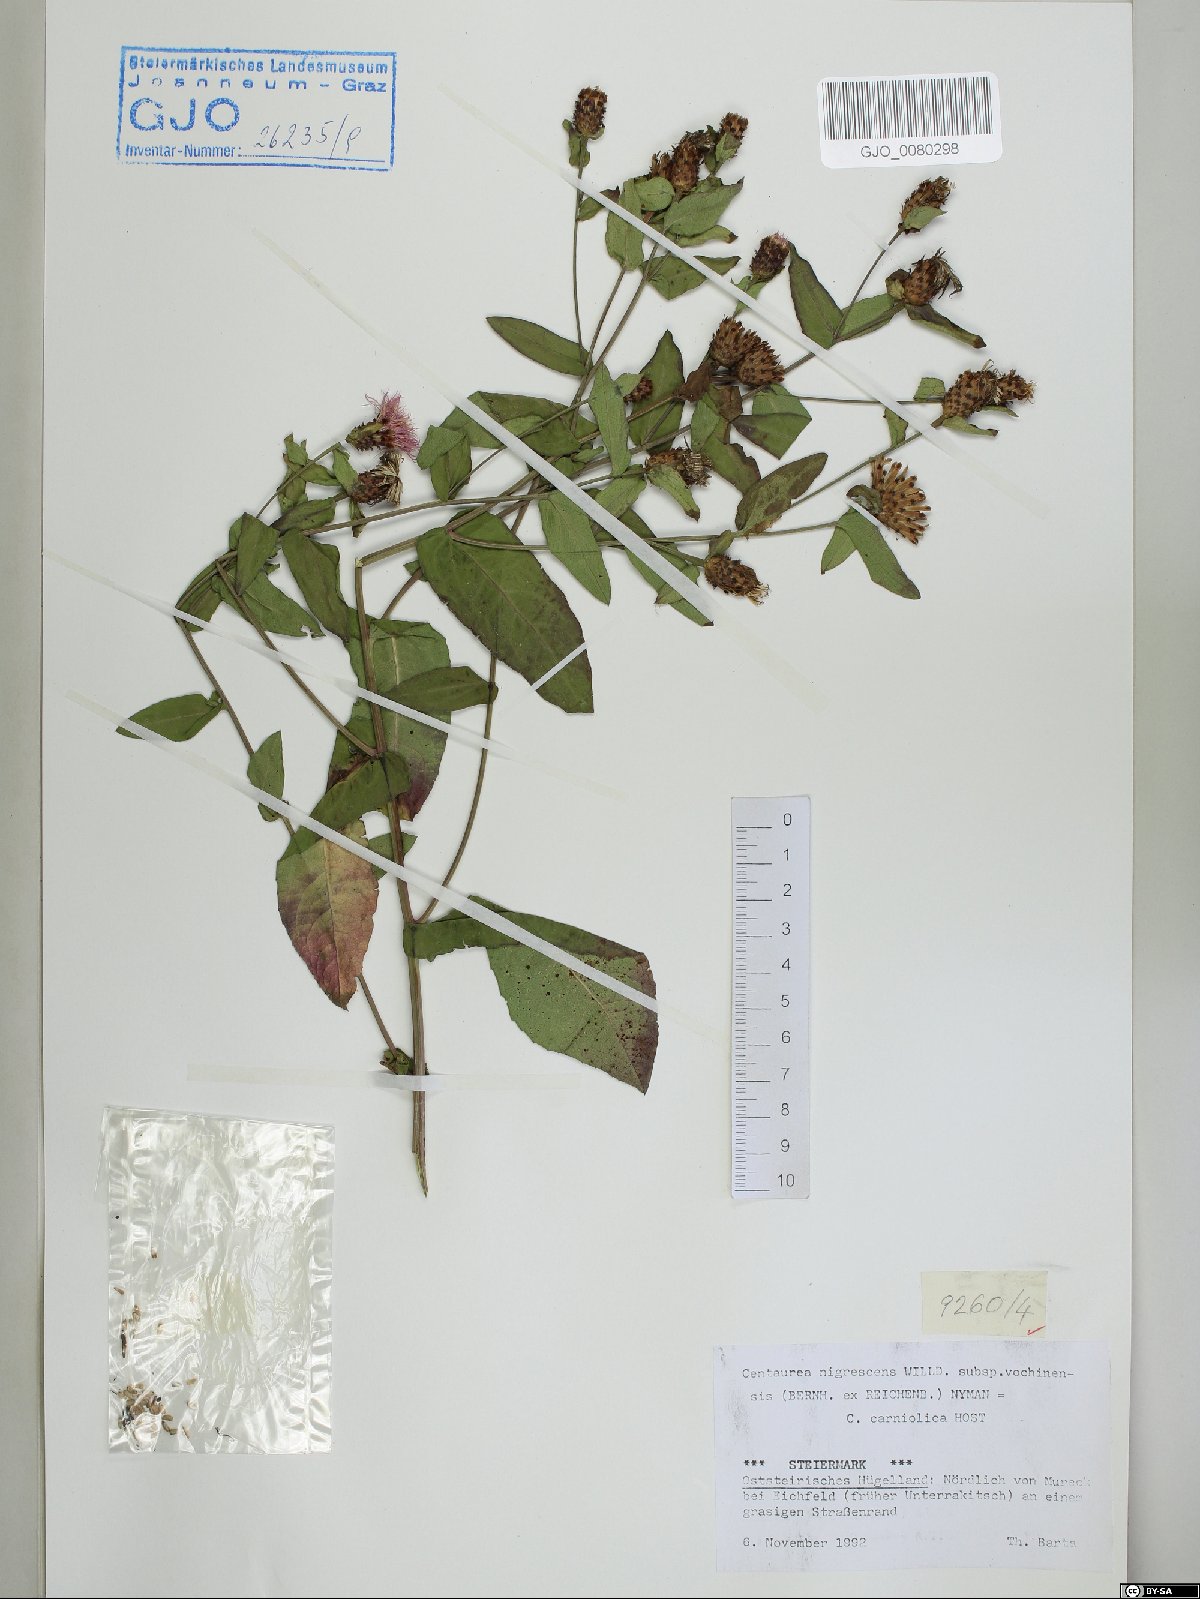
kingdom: Plantae
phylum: Tracheophyta
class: Magnoliopsida
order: Asterales
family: Asteraceae
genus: Centaurea
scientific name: Centaurea carniolica
